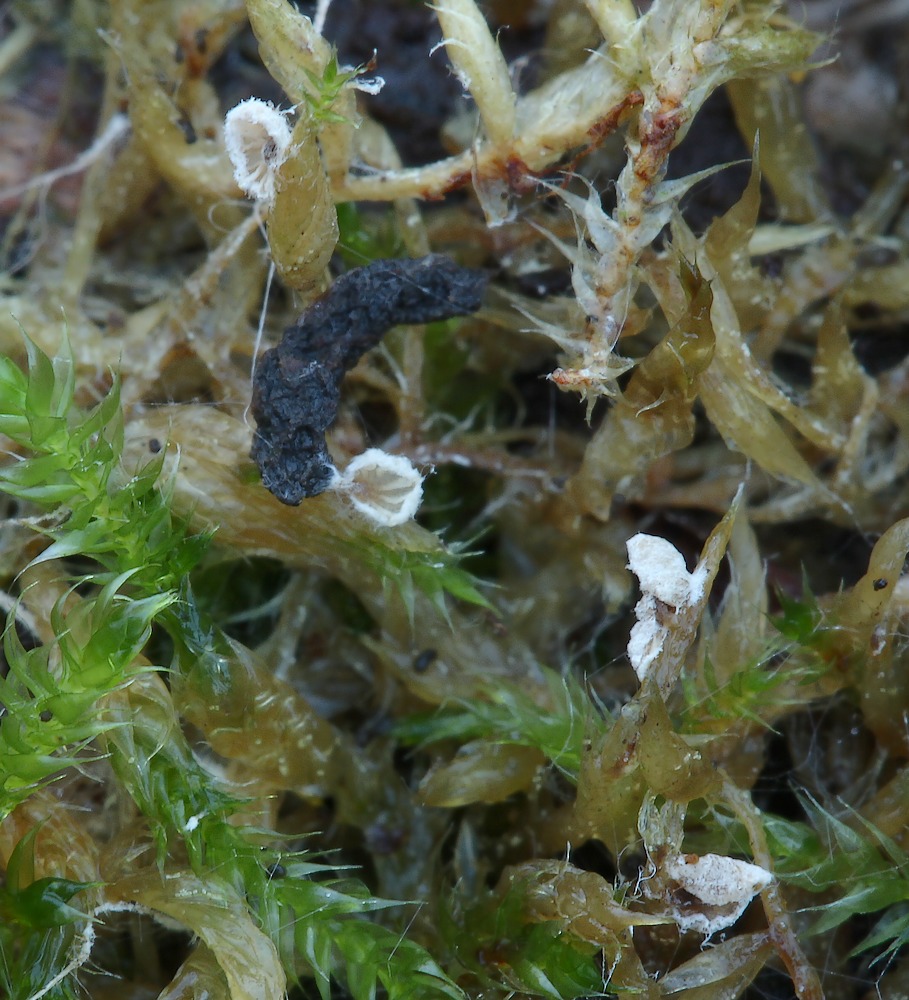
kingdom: Fungi
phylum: Basidiomycota
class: Agaricomycetes
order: Agaricales
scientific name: Agaricales
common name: champignonordenen
